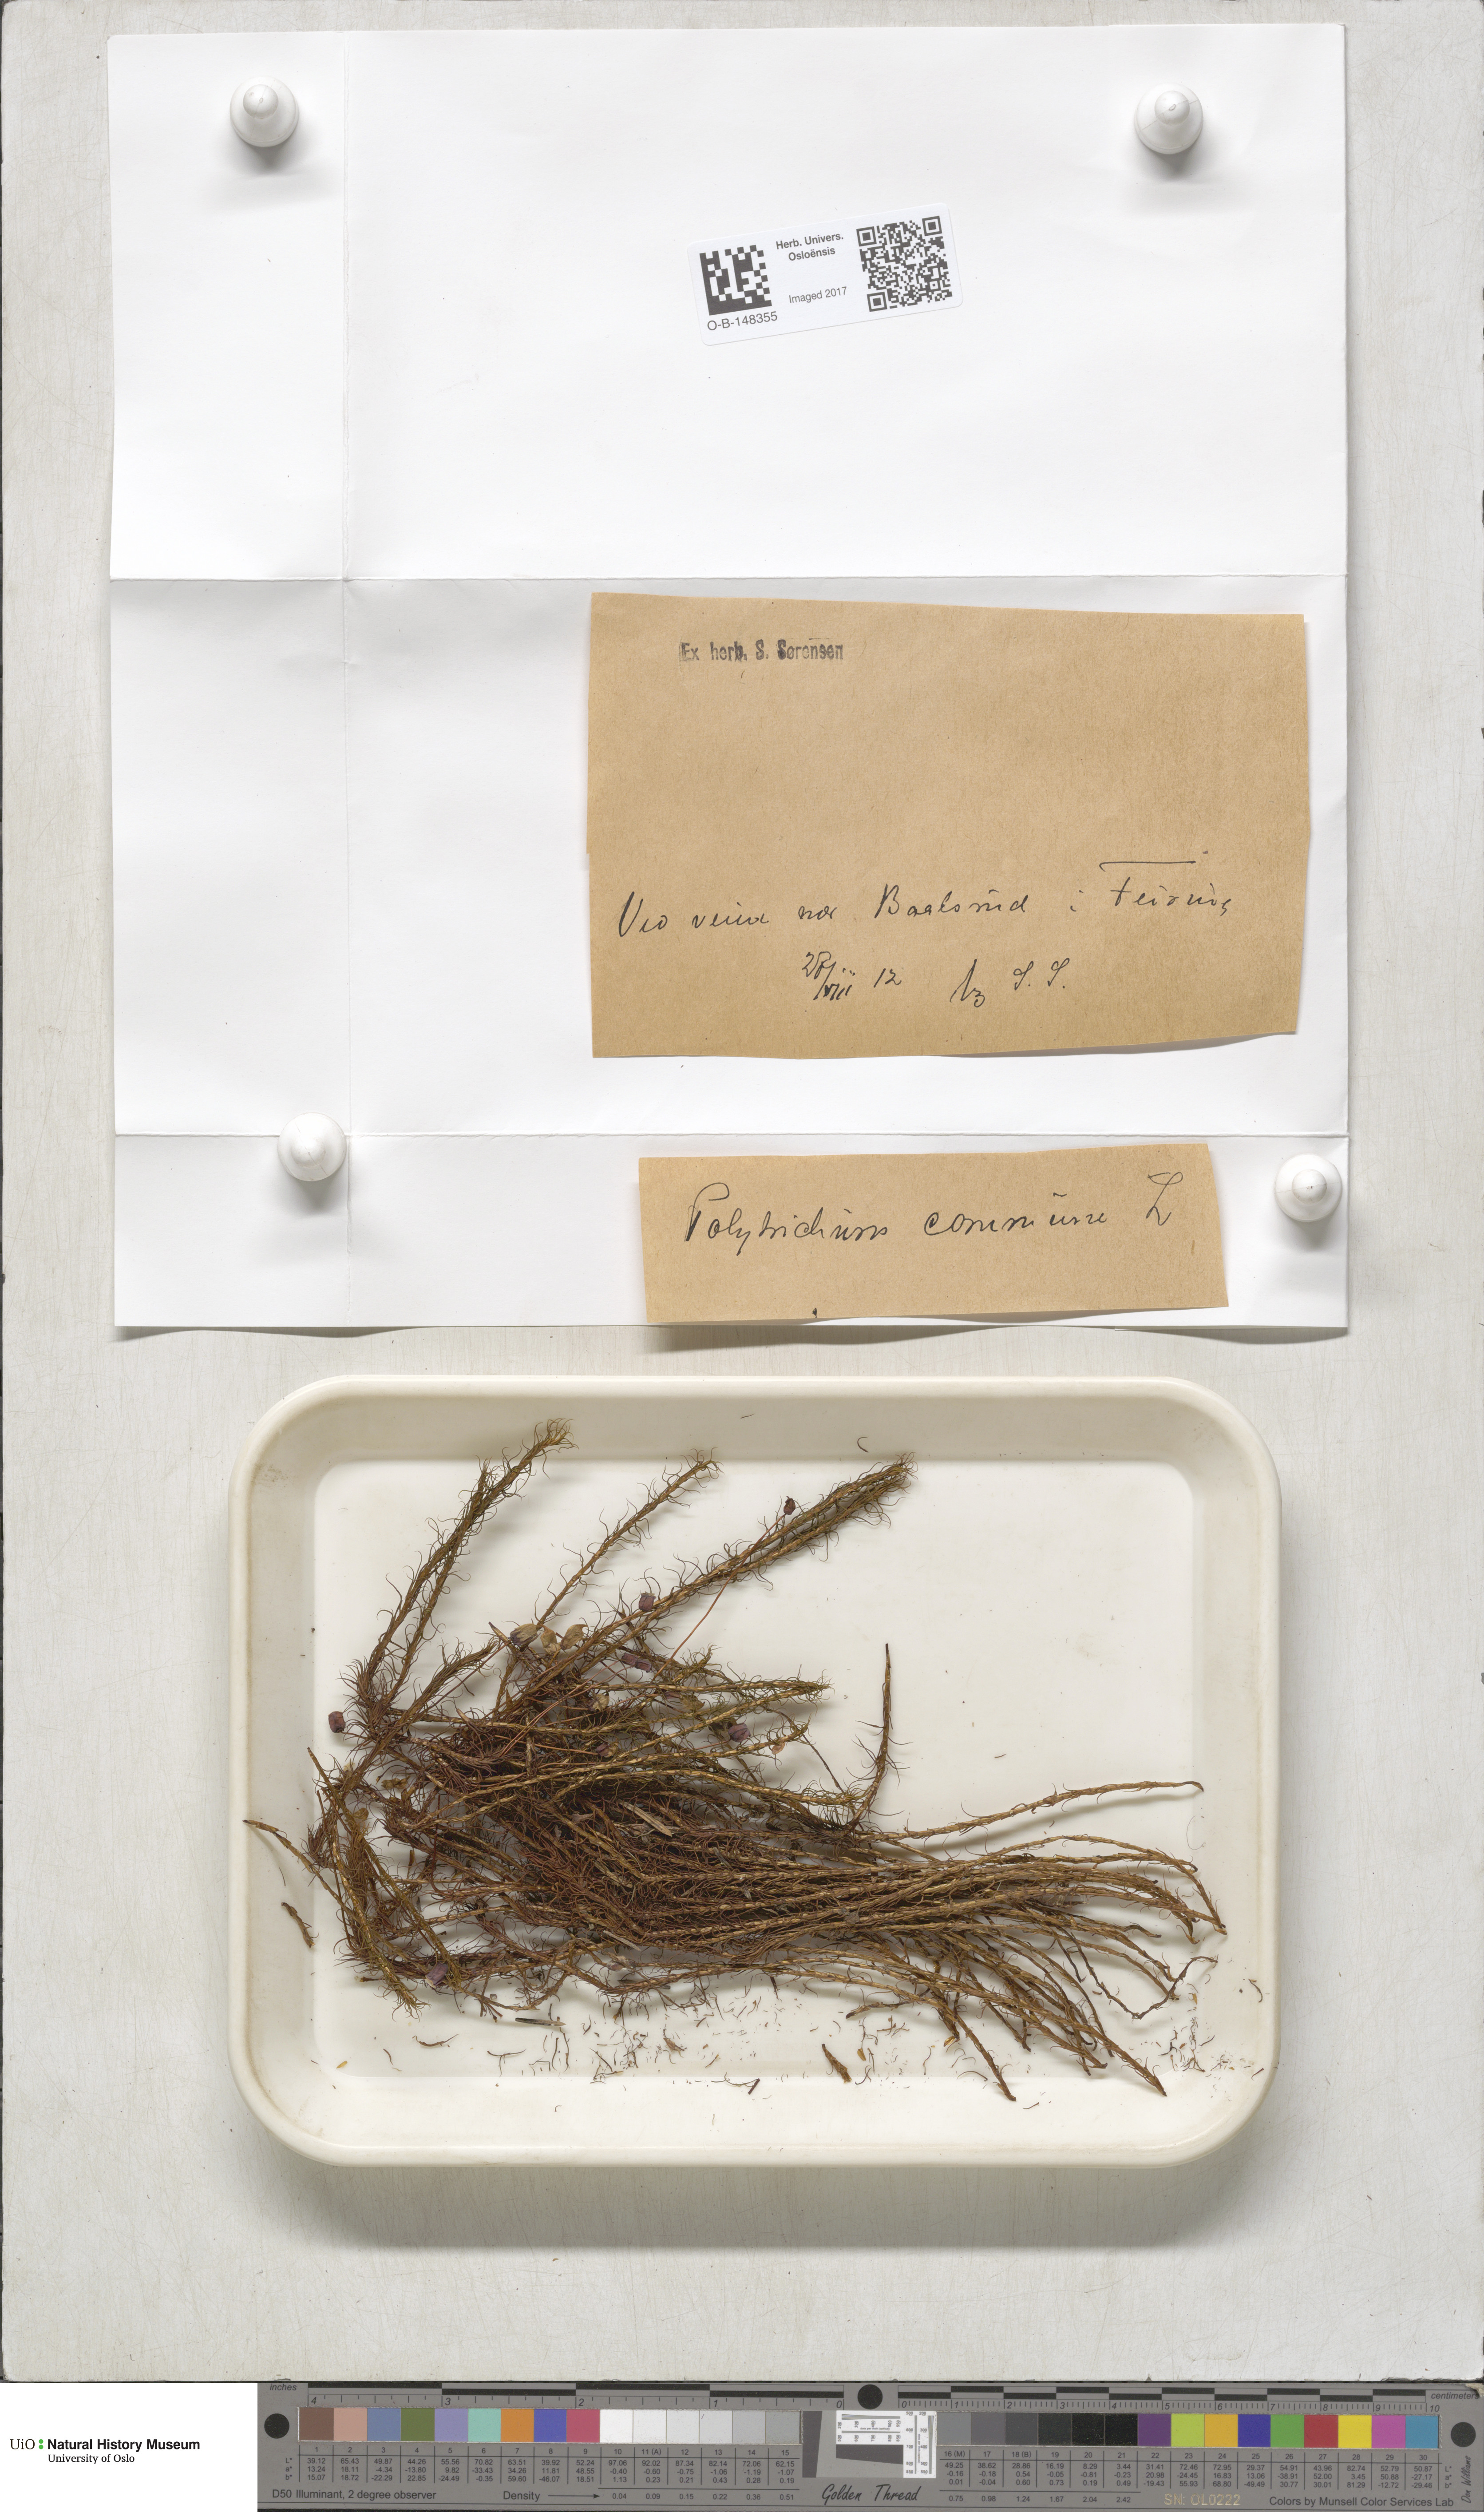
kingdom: Plantae
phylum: Bryophyta
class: Polytrichopsida
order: Polytrichales
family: Polytrichaceae
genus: Polytrichum
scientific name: Polytrichum commune
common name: Common haircap
